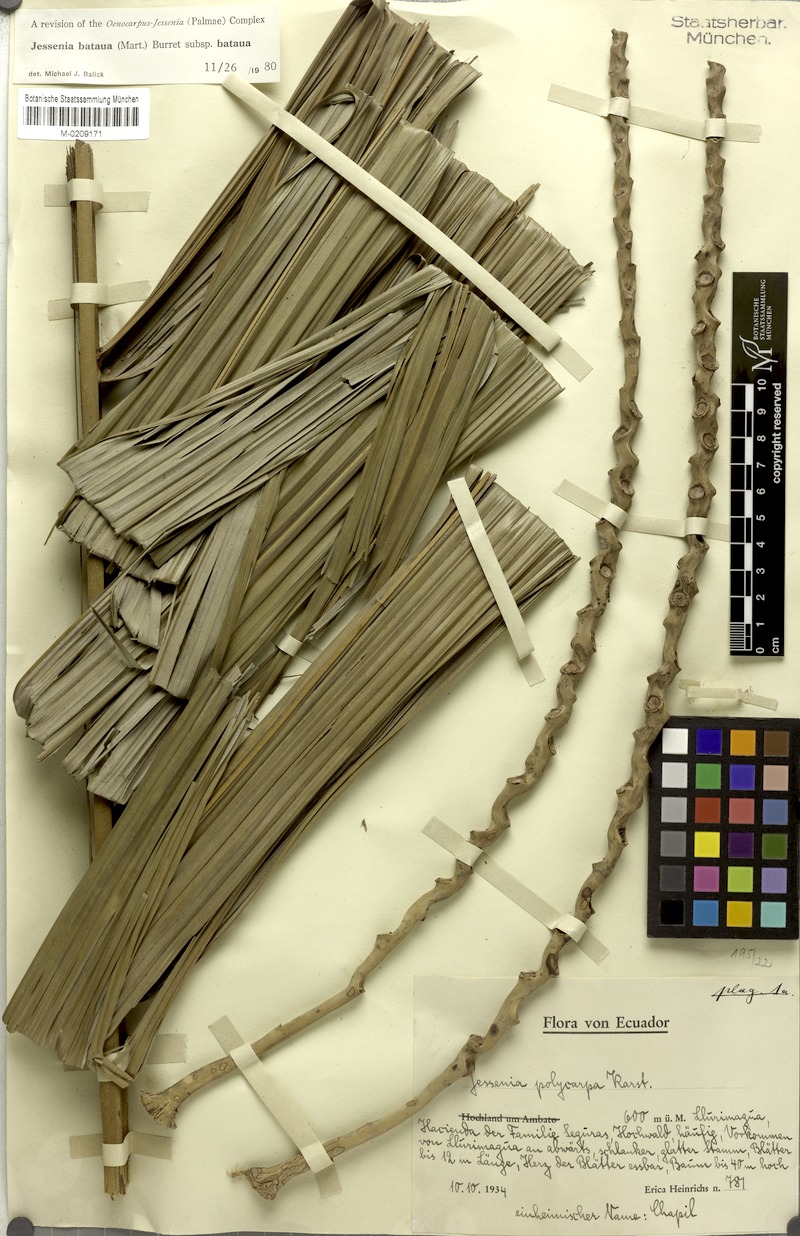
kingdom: Plantae
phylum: Tracheophyta
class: Liliopsida
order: Arecales
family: Arecaceae
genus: Oenocarpus
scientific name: Oenocarpus bataua
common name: Bataua palm
